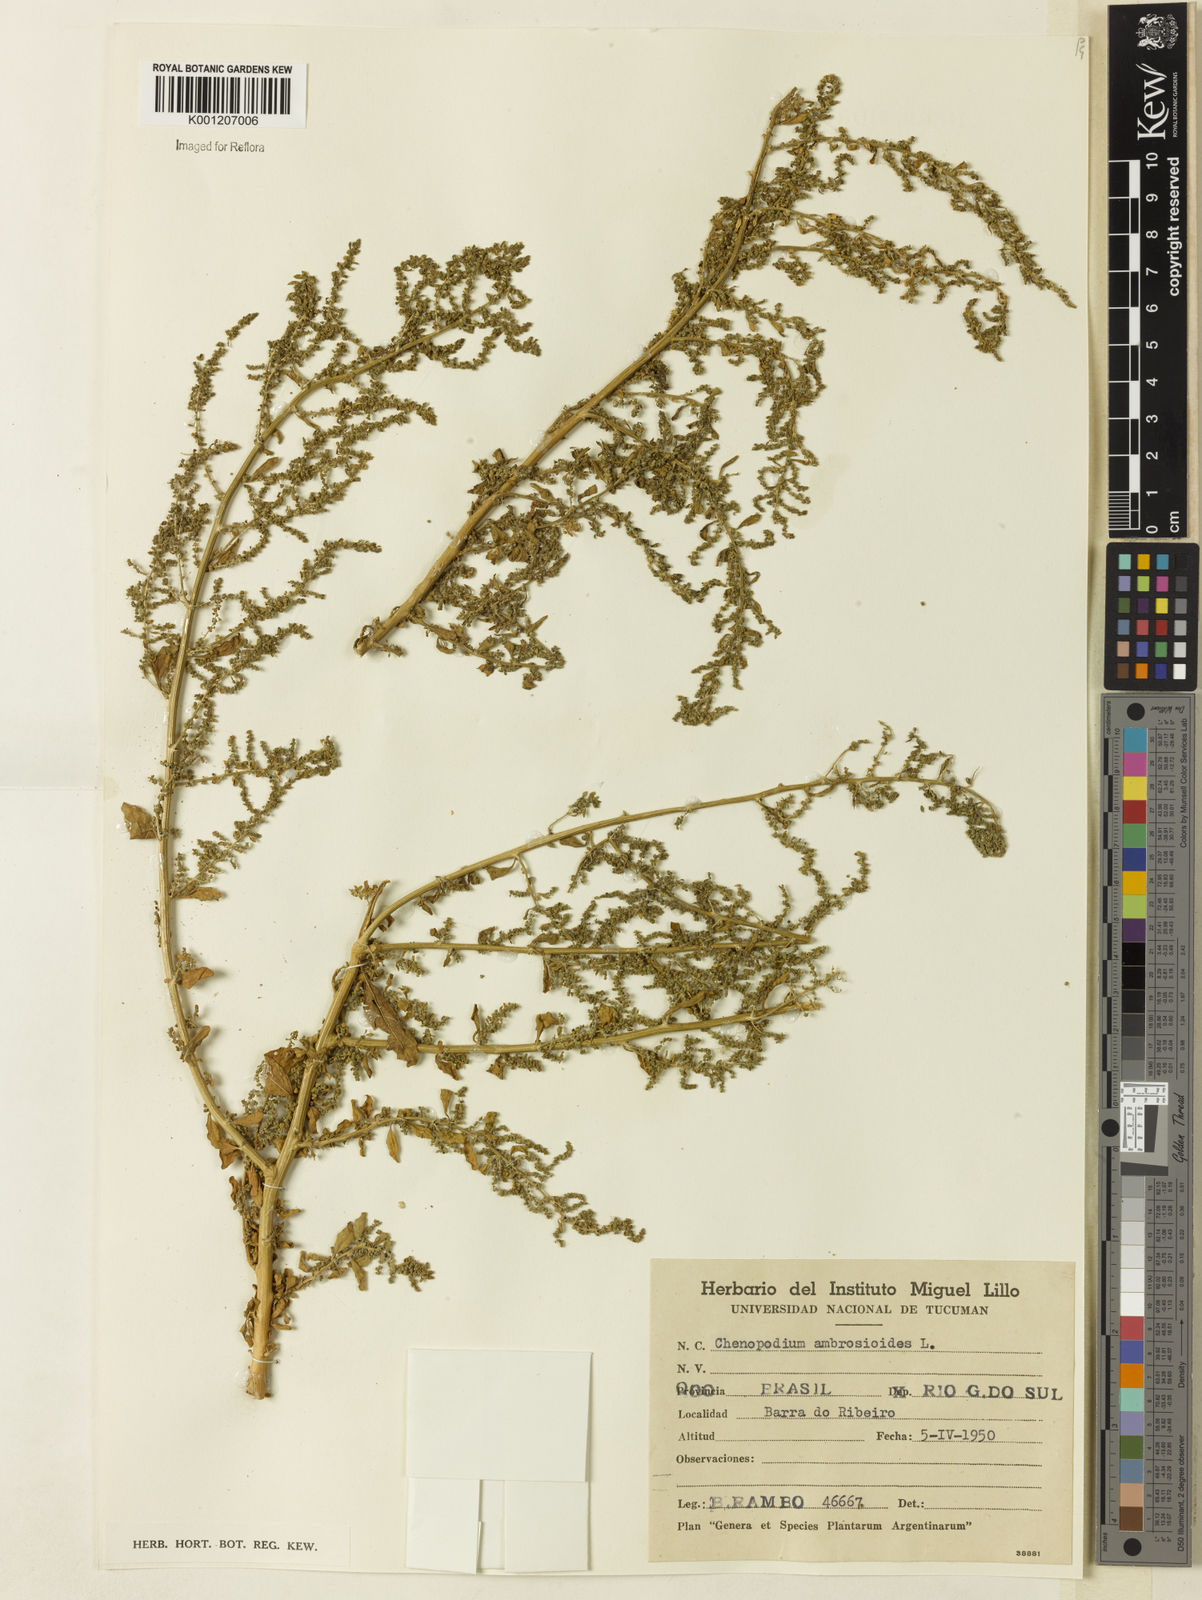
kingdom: Plantae
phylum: Tracheophyta
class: Magnoliopsida
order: Caryophyllales
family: Amaranthaceae
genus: Dysphania
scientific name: Dysphania ambrosioides
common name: Wormseed
